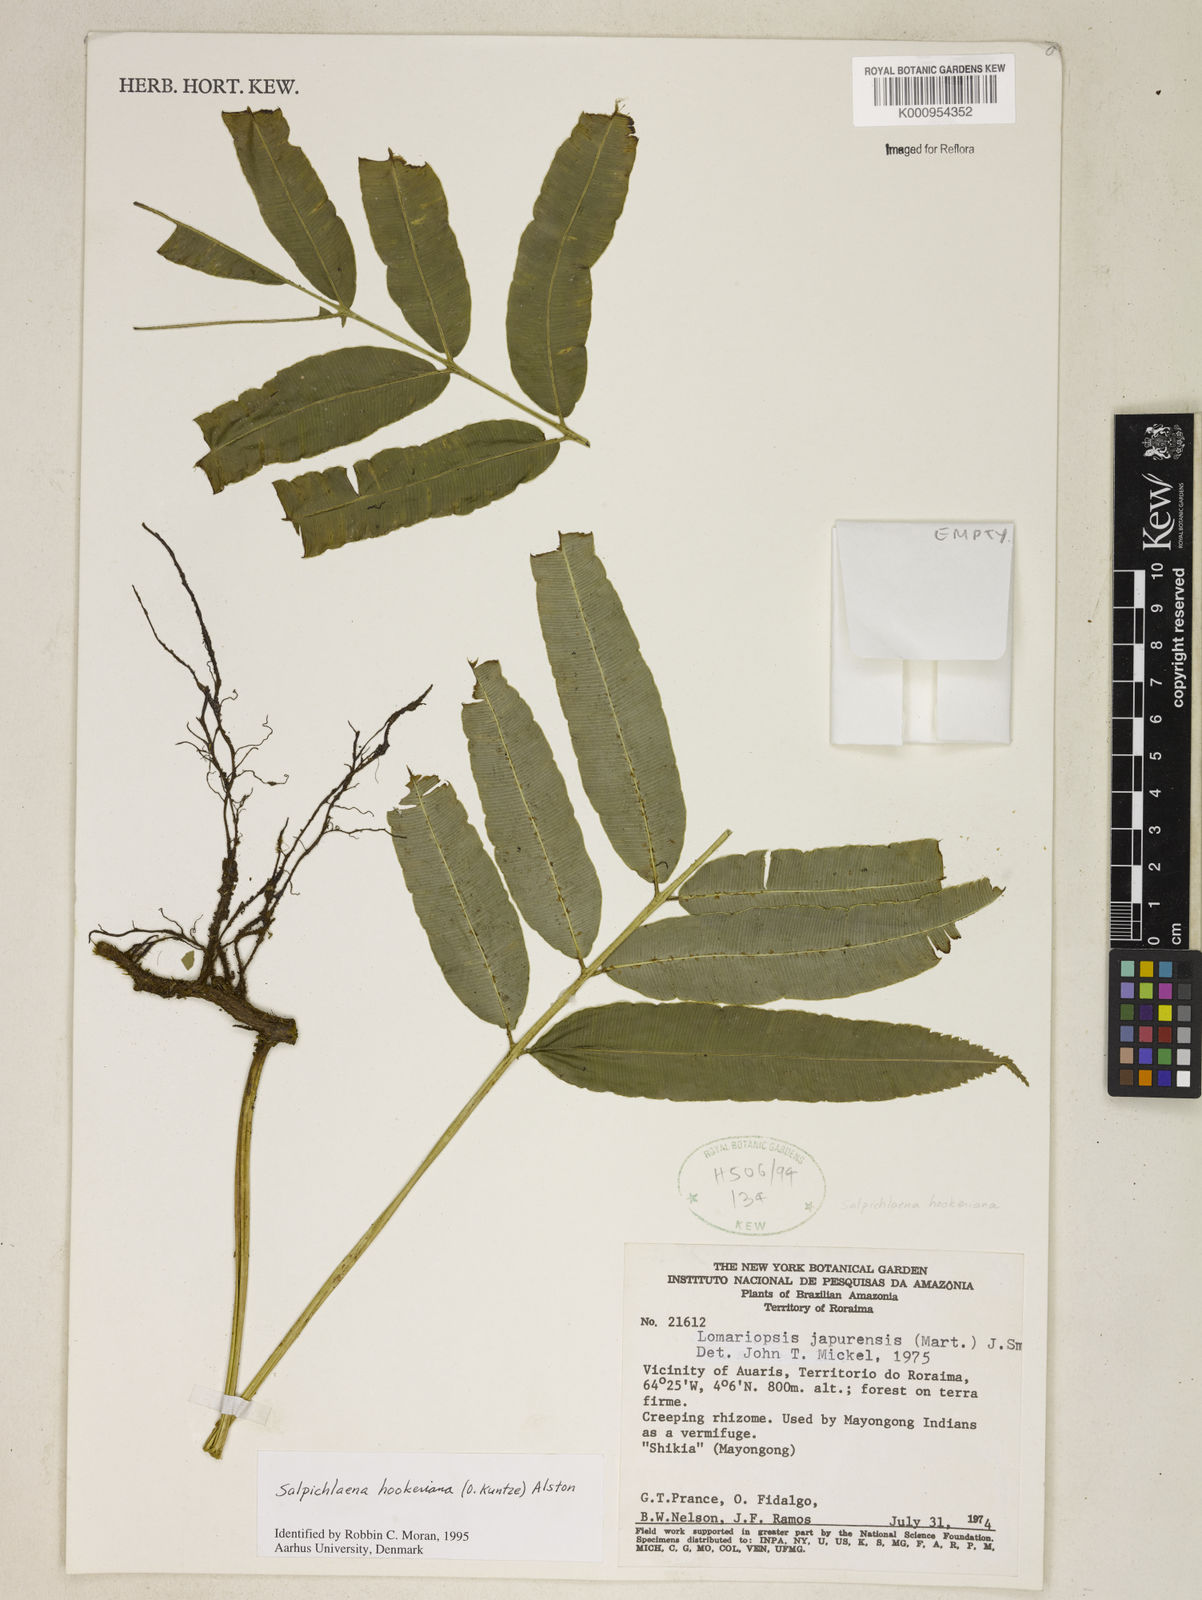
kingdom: Plantae
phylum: Tracheophyta
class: Polypodiopsida
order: Polypodiales
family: Blechnaceae
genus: Blechnum
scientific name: Blechnum
